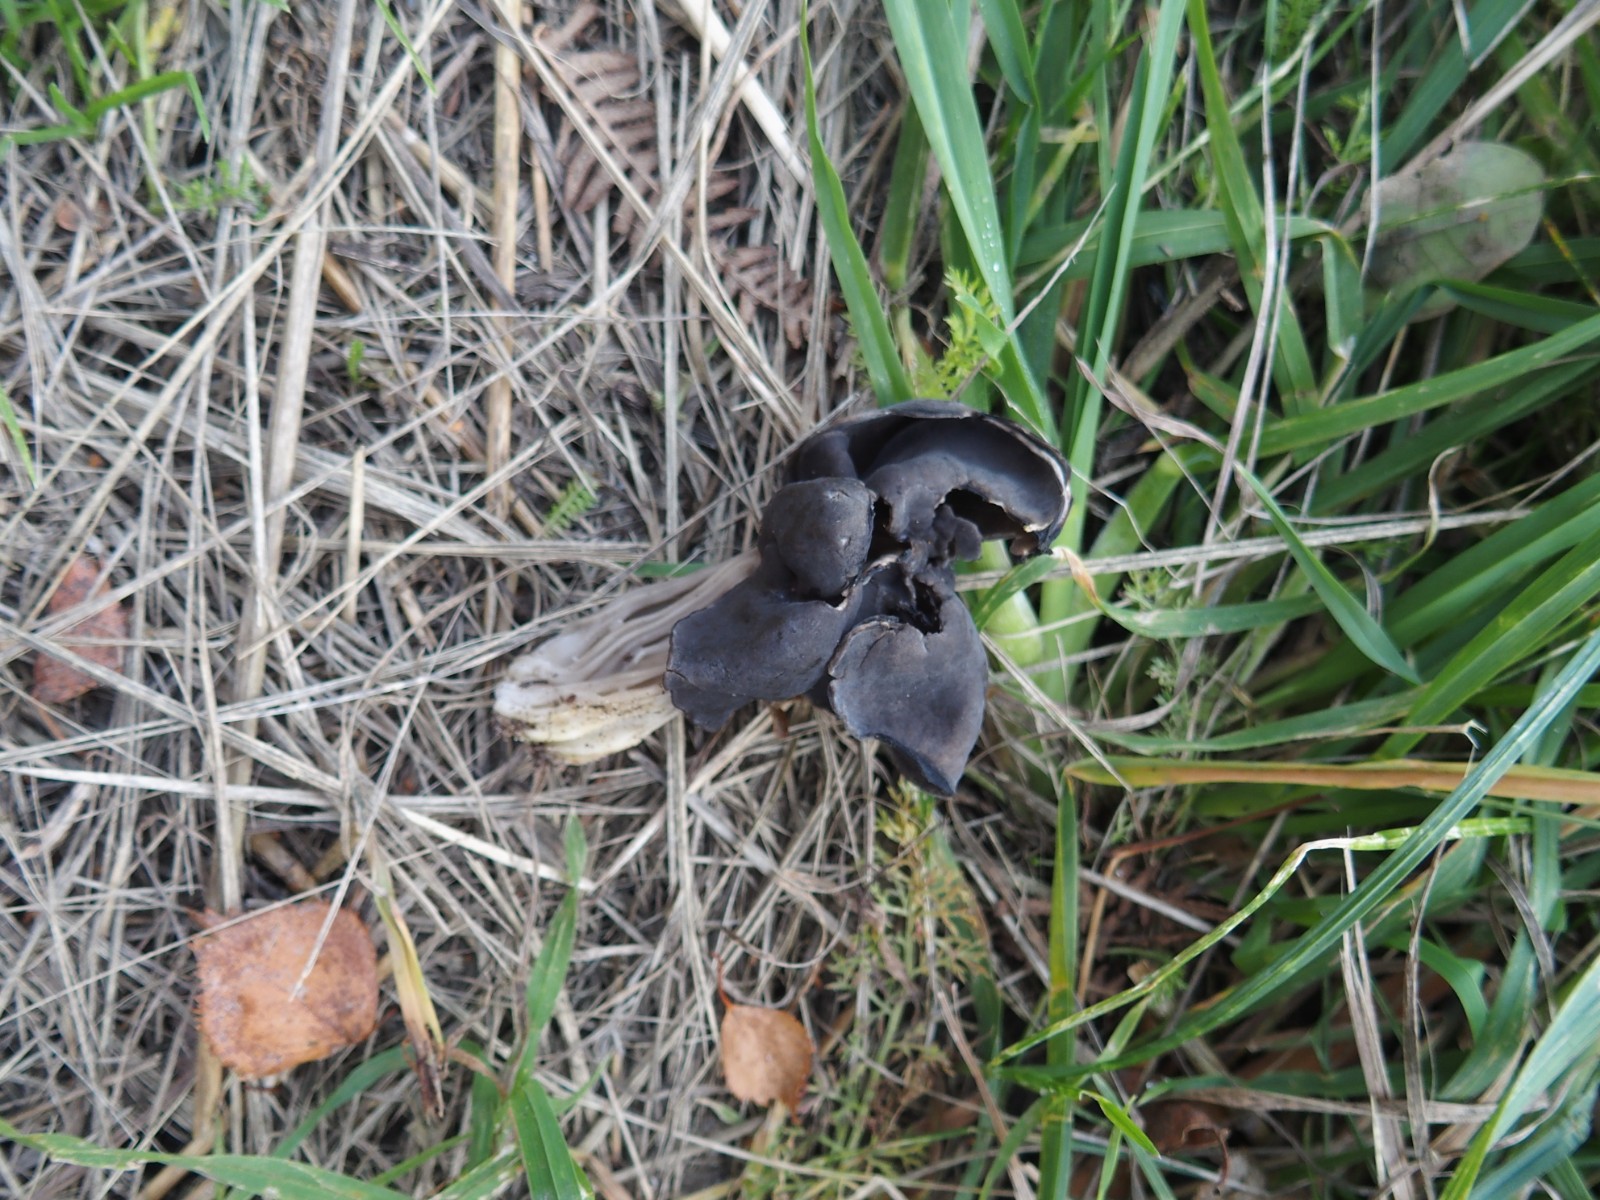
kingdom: Fungi
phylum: Ascomycota
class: Pezizomycetes
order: Pezizales
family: Helvellaceae
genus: Helvella
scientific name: Helvella lacunosa
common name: grubet foldhat
